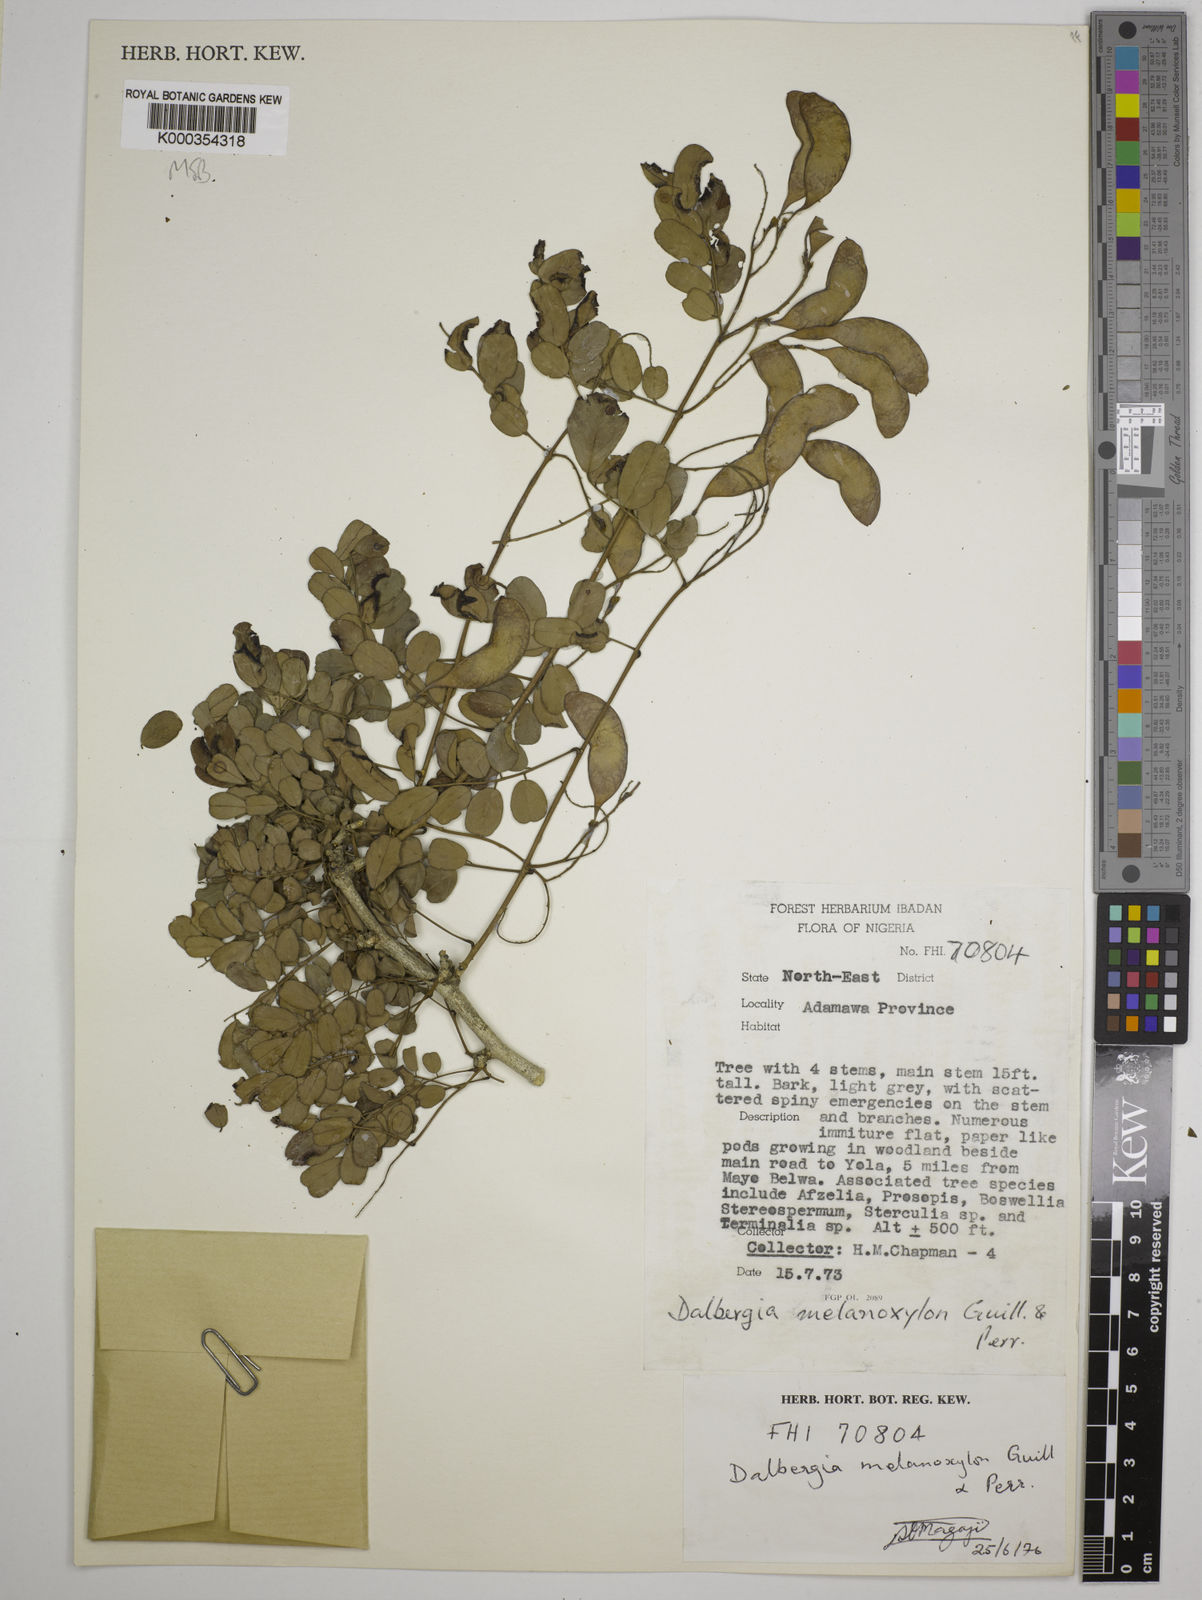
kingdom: Plantae
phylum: Tracheophyta
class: Magnoliopsida
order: Fabales
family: Fabaceae
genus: Dalbergia
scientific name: Dalbergia melanoxylon
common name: African blackwood
